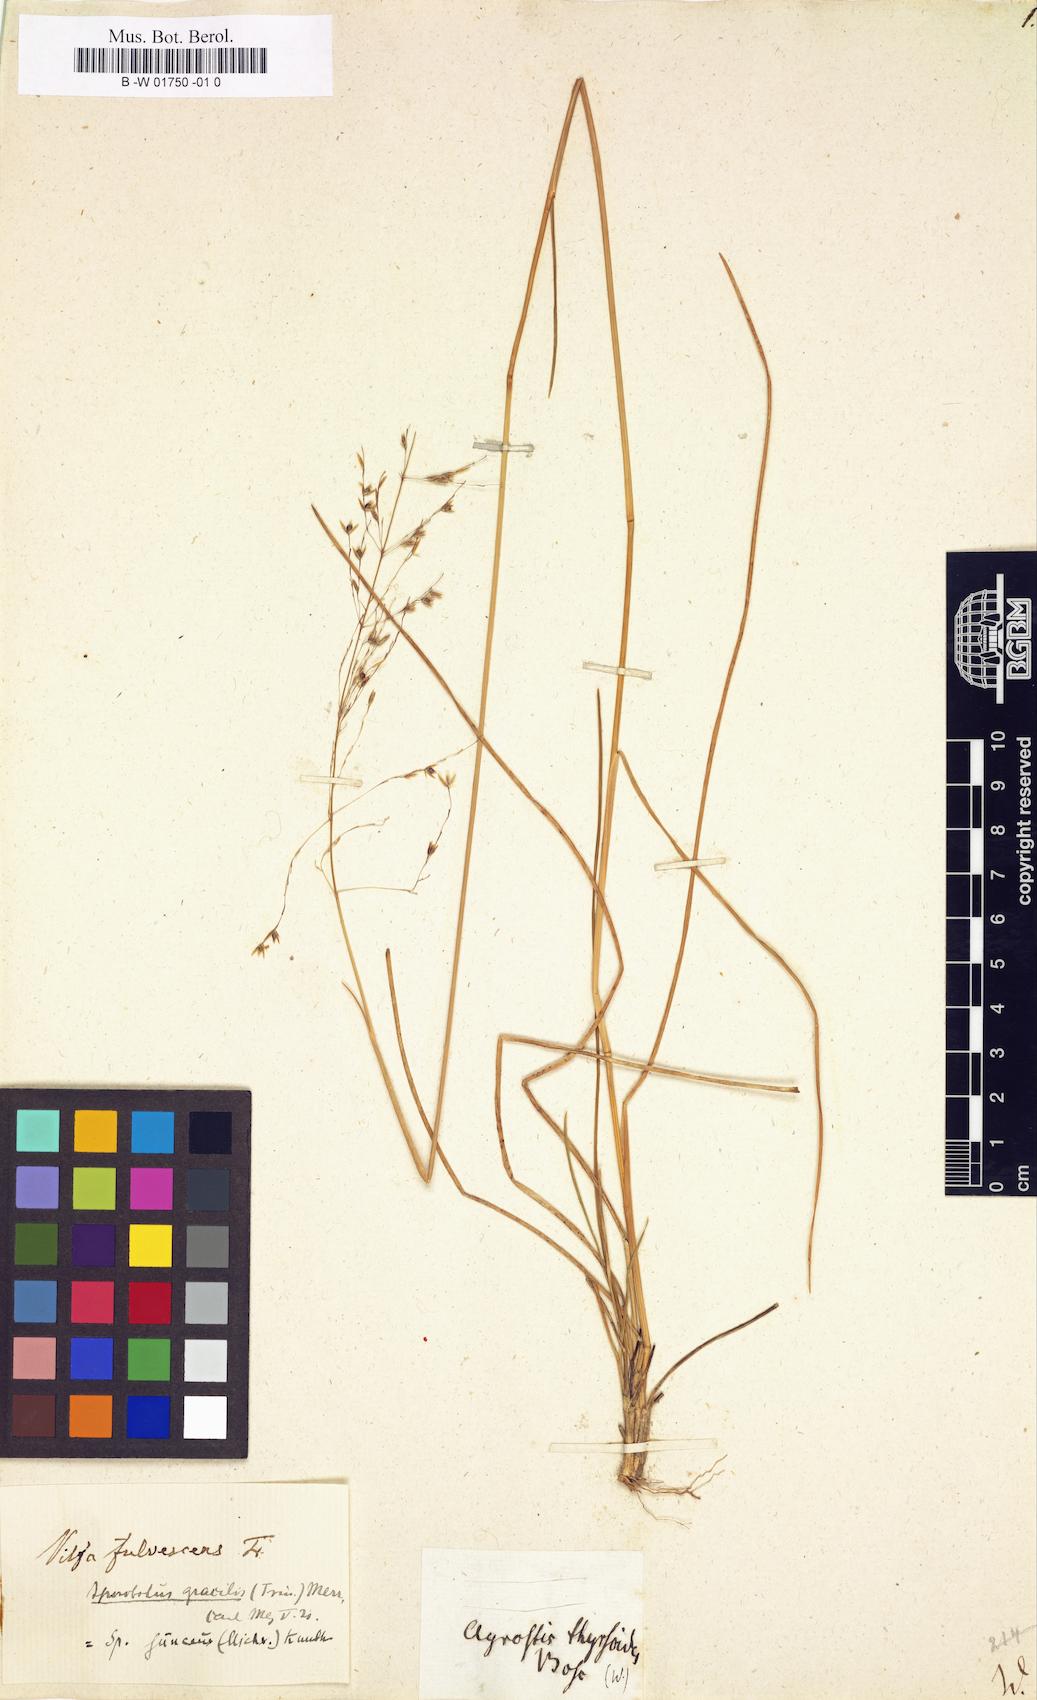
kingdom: Plantae
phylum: Tracheophyta
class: Liliopsida
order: Poales
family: Poaceae
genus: Sporobolus
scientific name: Sporobolus junceus
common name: Lizard grass
